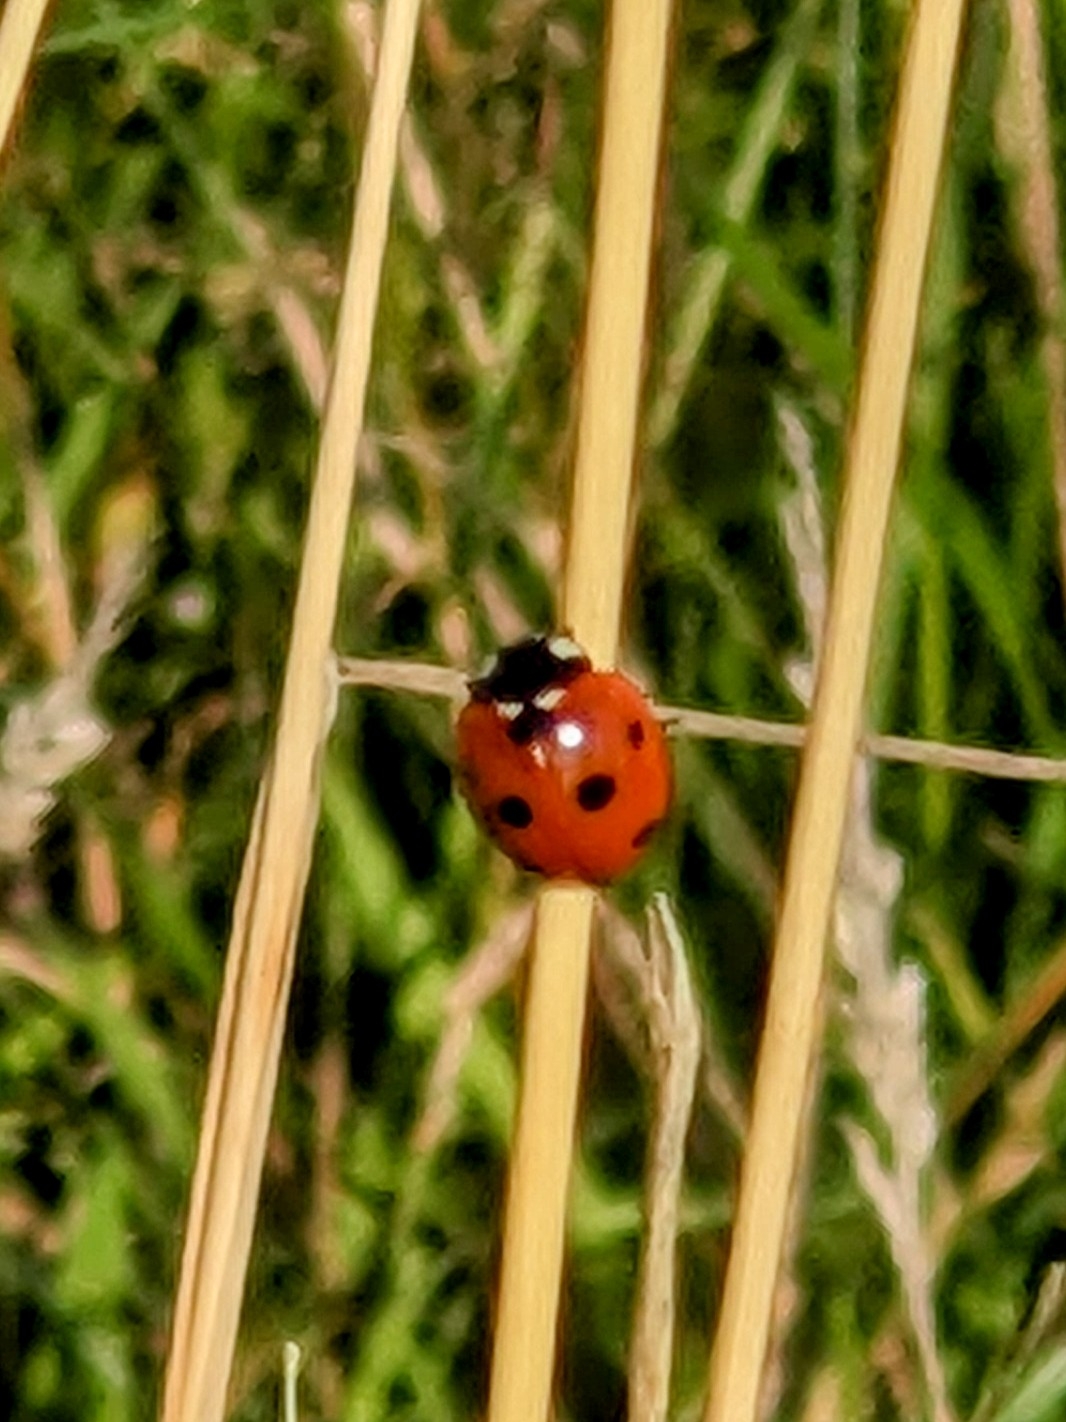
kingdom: Animalia
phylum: Arthropoda
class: Insecta
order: Coleoptera
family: Coccinellidae
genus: Coccinella
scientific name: Coccinella septempunctata
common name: Syvplettet mariehøne
